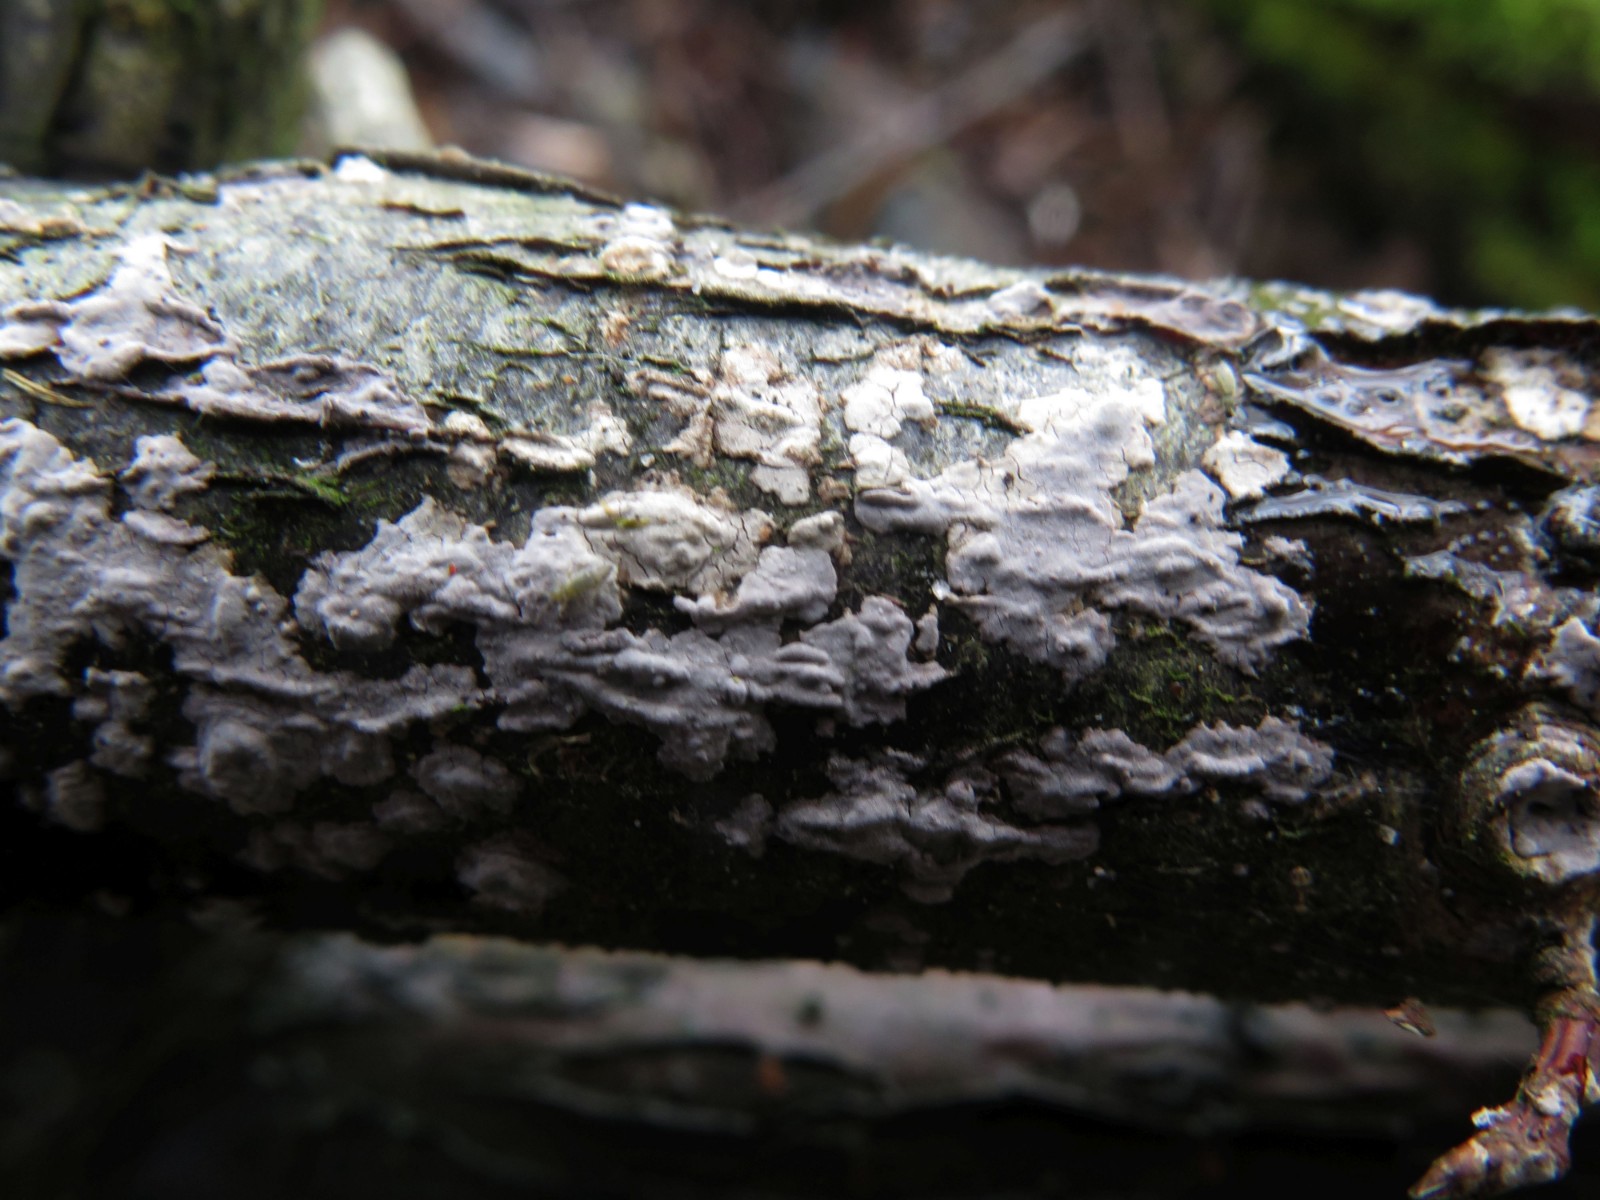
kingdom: Fungi
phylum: Basidiomycota
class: Agaricomycetes
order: Russulales
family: Peniophoraceae
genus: Peniophora
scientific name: Peniophora lycii
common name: grynet voksskind
